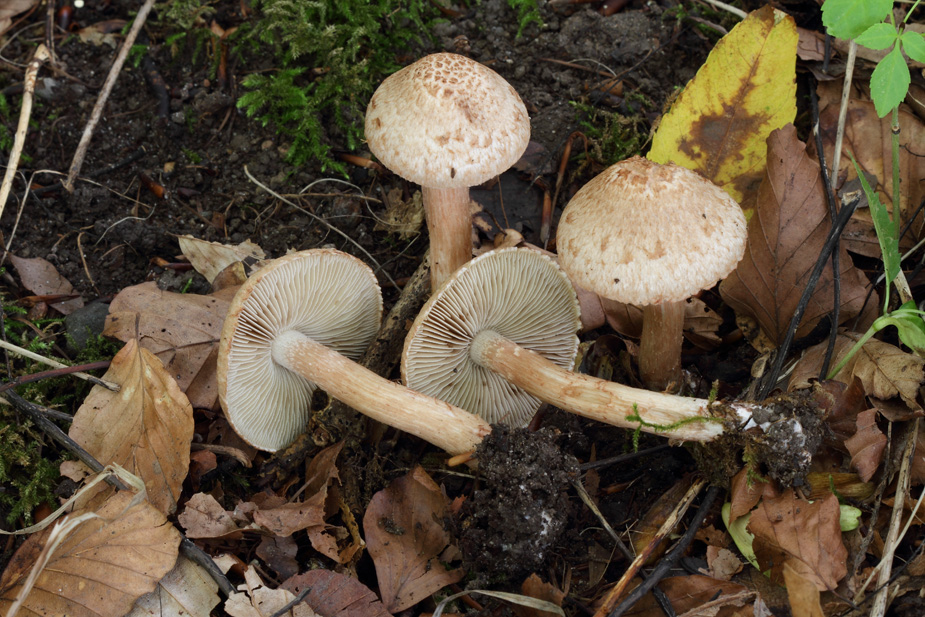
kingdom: Fungi
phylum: Basidiomycota
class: Agaricomycetes
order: Agaricales
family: Inocybaceae
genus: Inosperma
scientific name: Inosperma bongardii
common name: Bongards trævlhat
